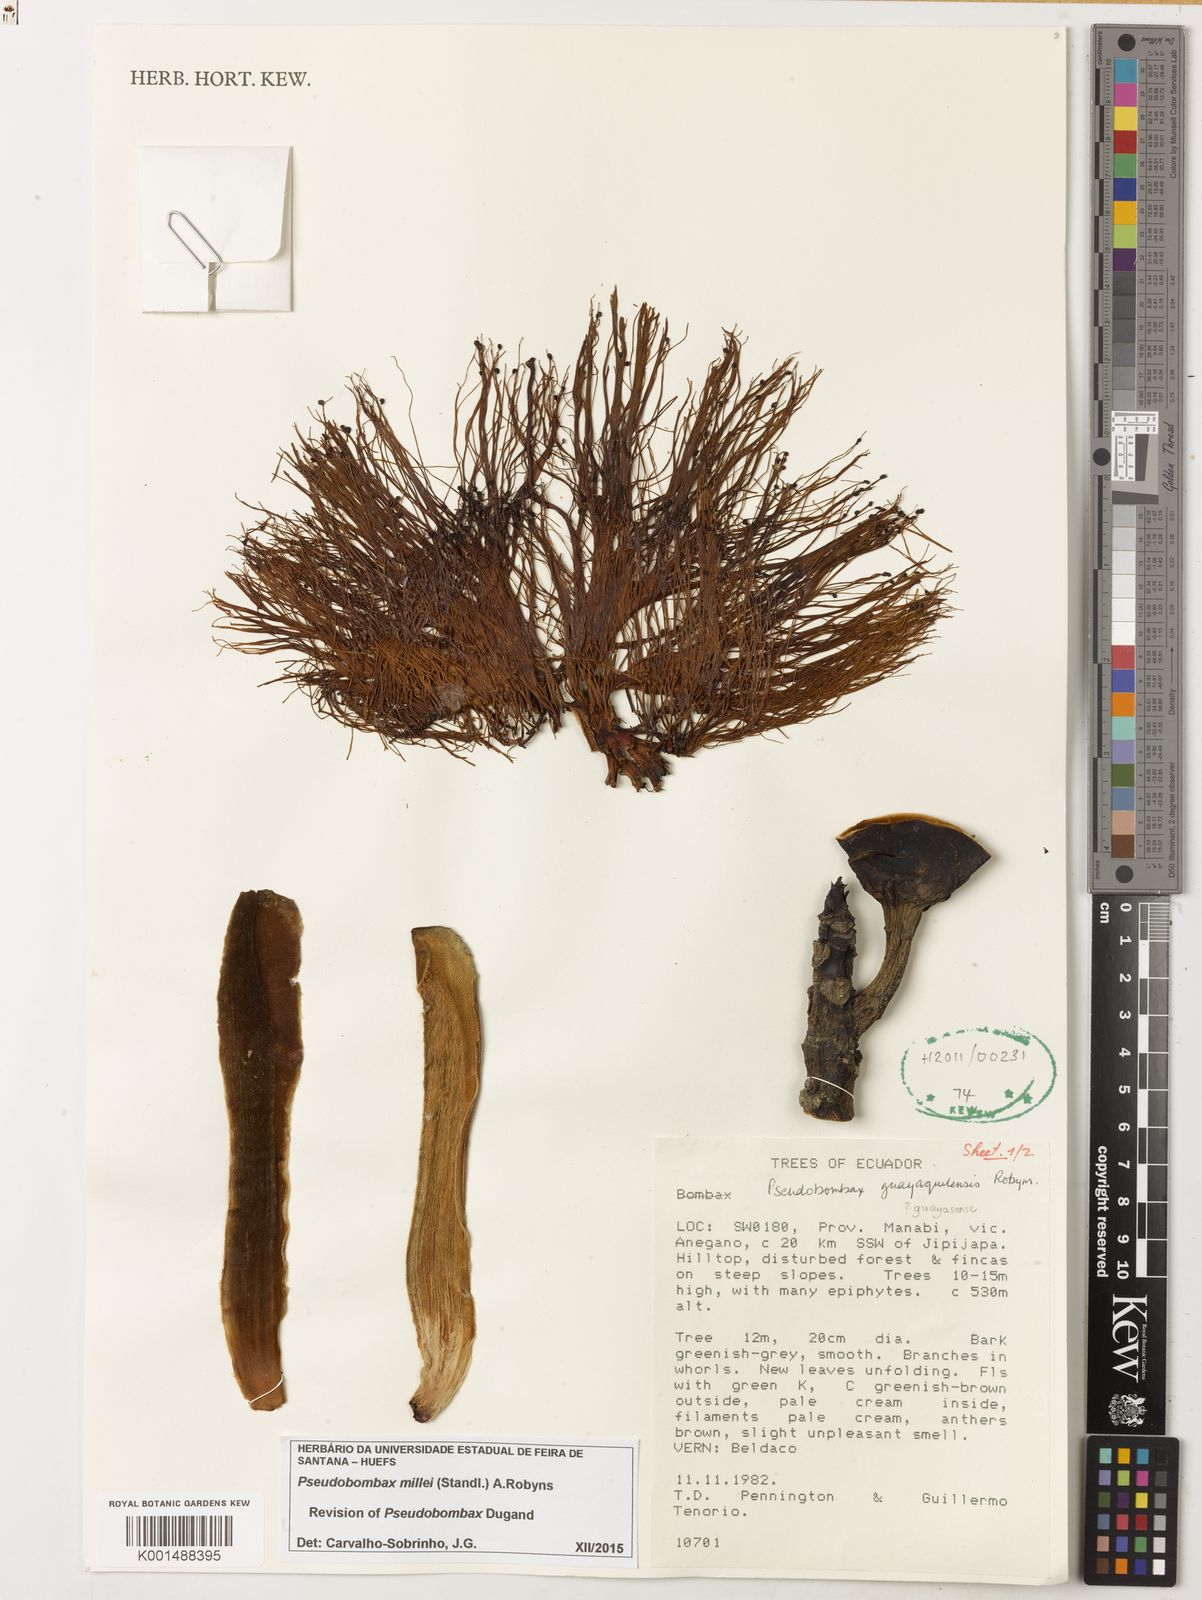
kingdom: Plantae
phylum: Tracheophyta
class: Magnoliopsida
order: Malvales
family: Malvaceae
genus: Pseudobombax
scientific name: Pseudobombax millei
